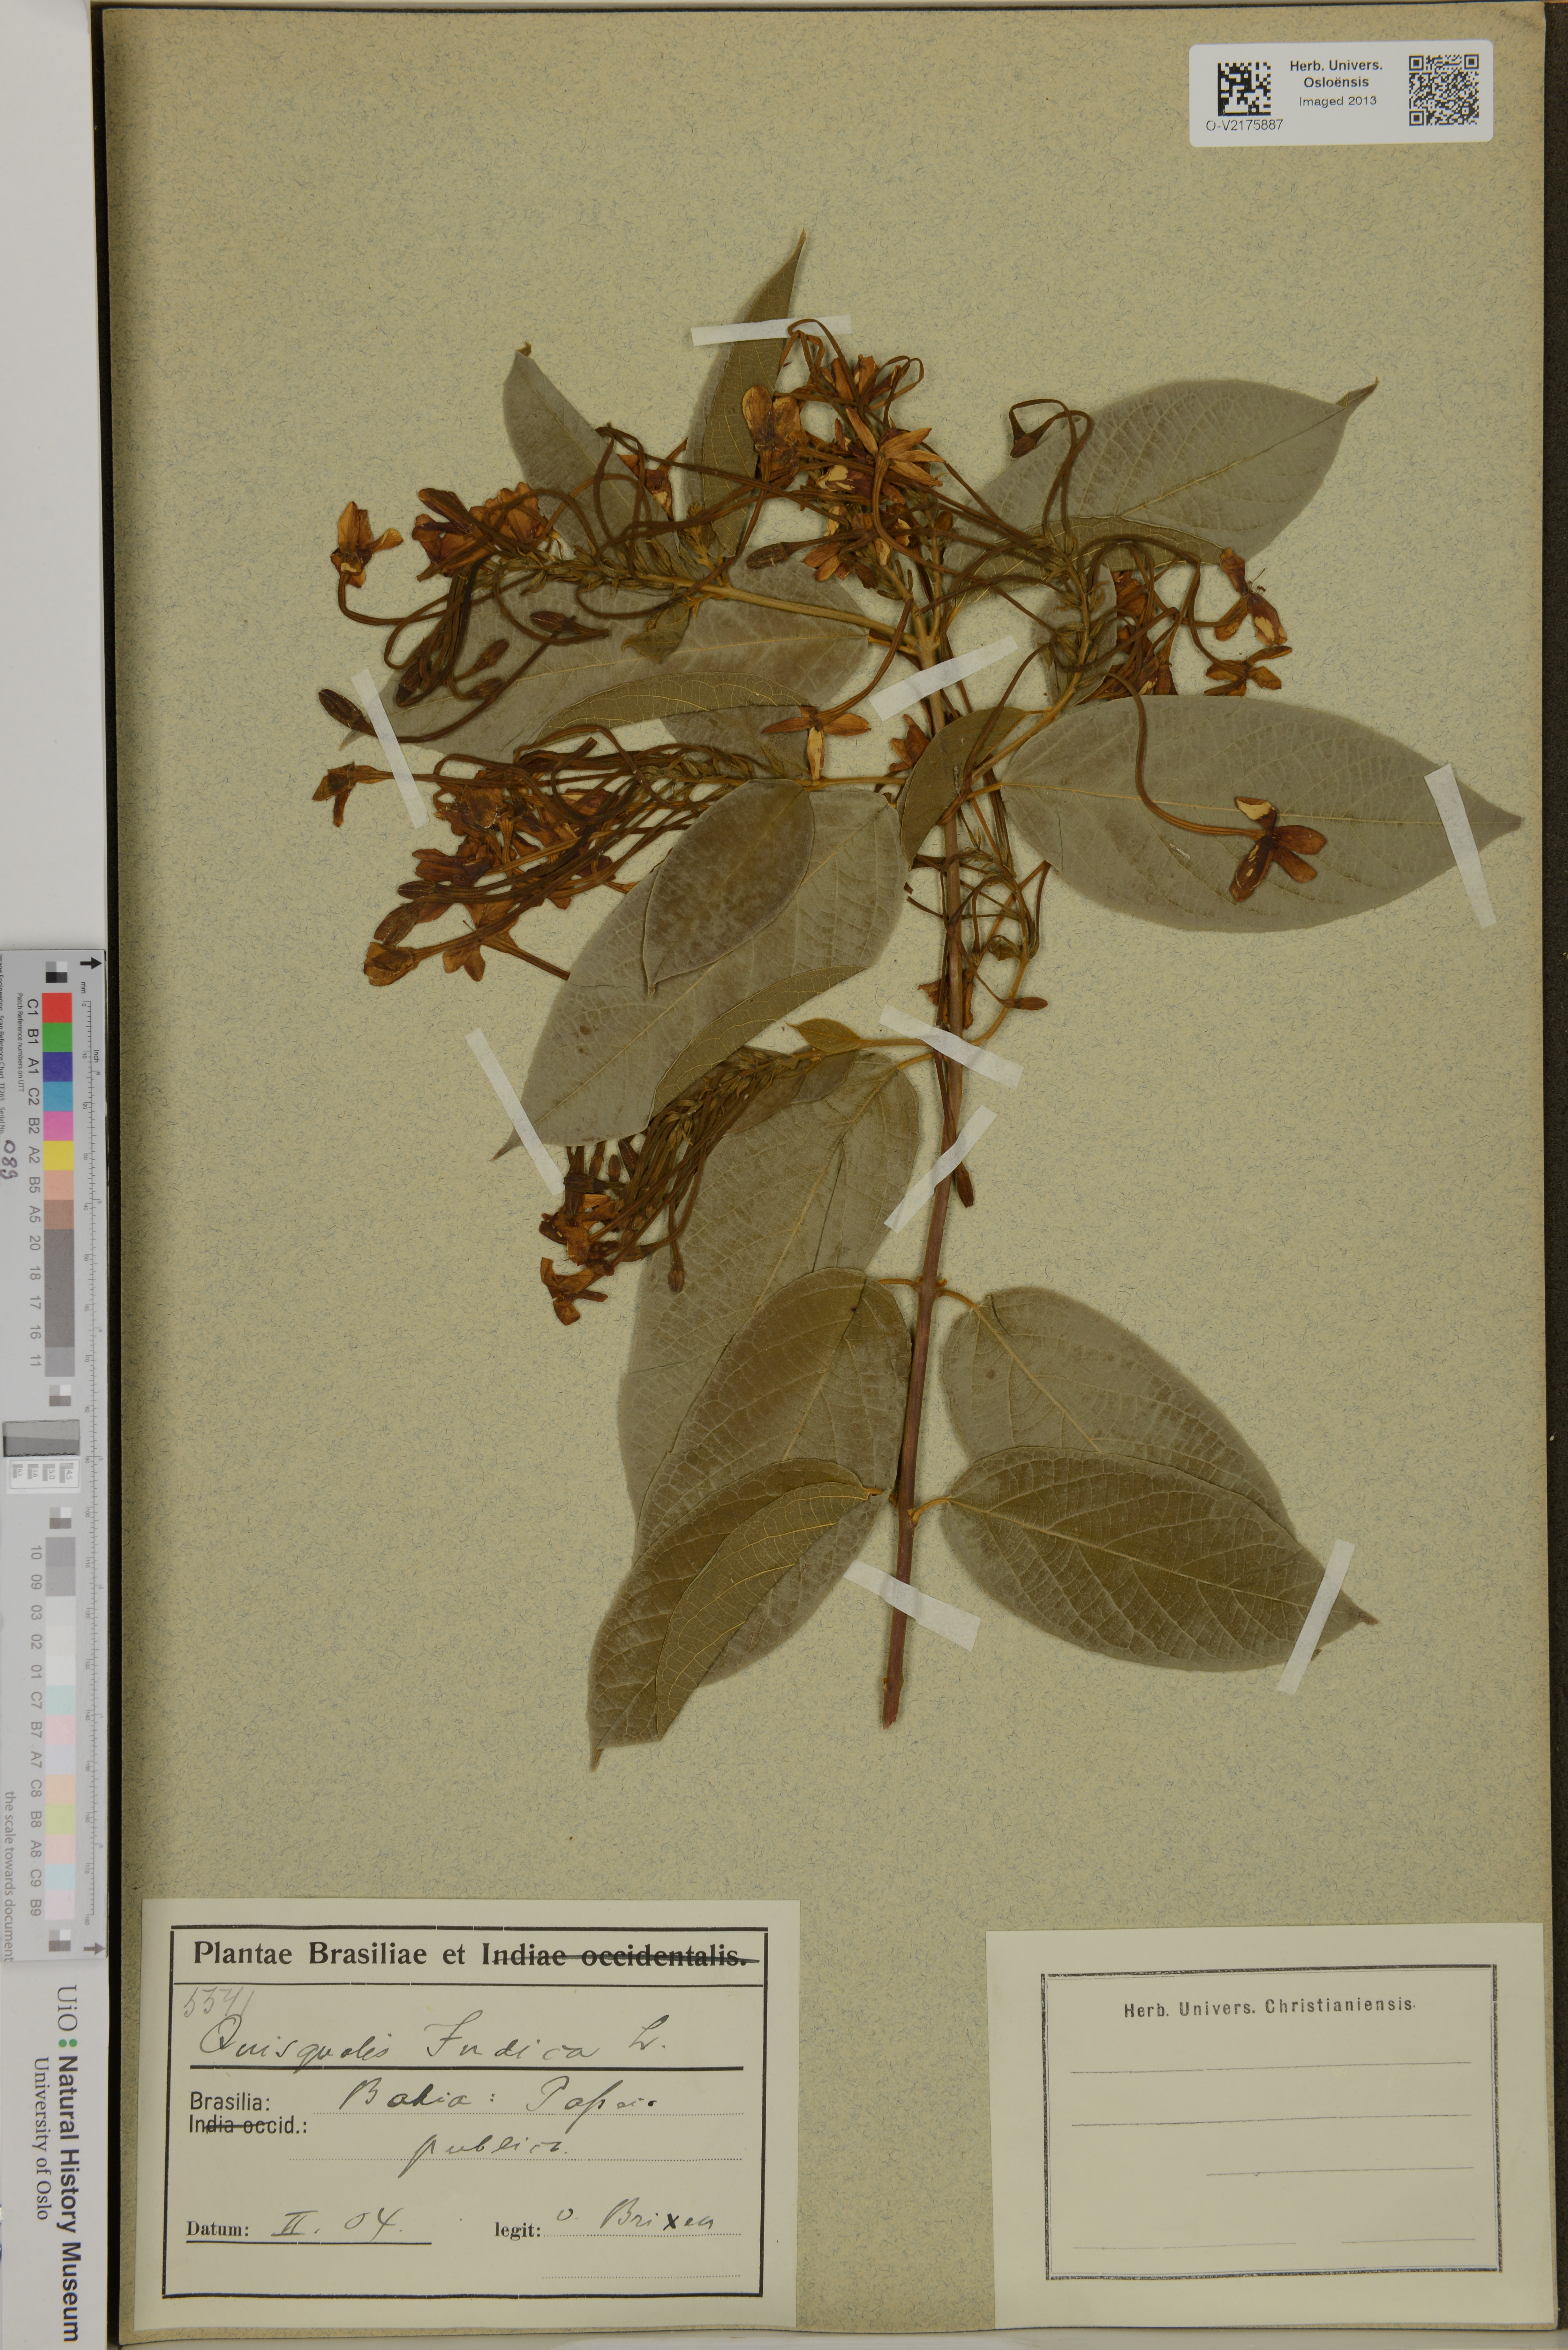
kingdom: Plantae
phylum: Tracheophyta
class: Magnoliopsida
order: Myrtales
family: Combretaceae
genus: Combretum
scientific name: Combretum
